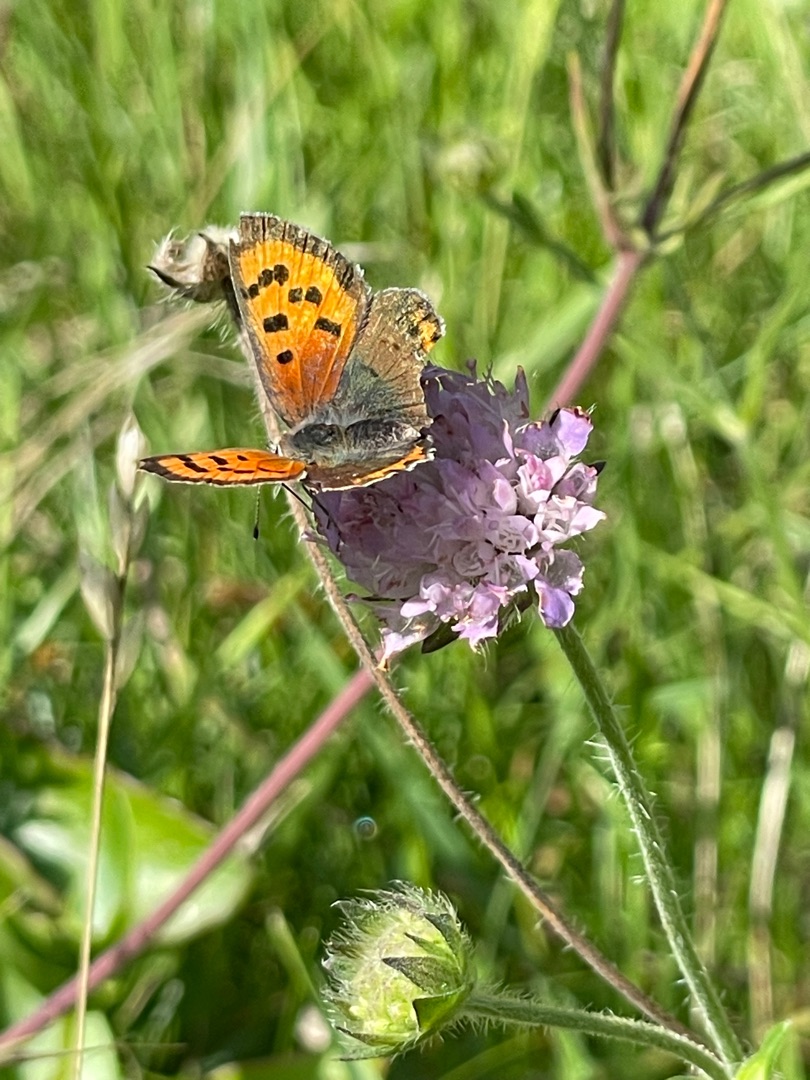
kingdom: Animalia
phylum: Arthropoda
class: Insecta
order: Lepidoptera
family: Lycaenidae
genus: Lycaena
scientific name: Lycaena phlaeas
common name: Lille ildfugl
